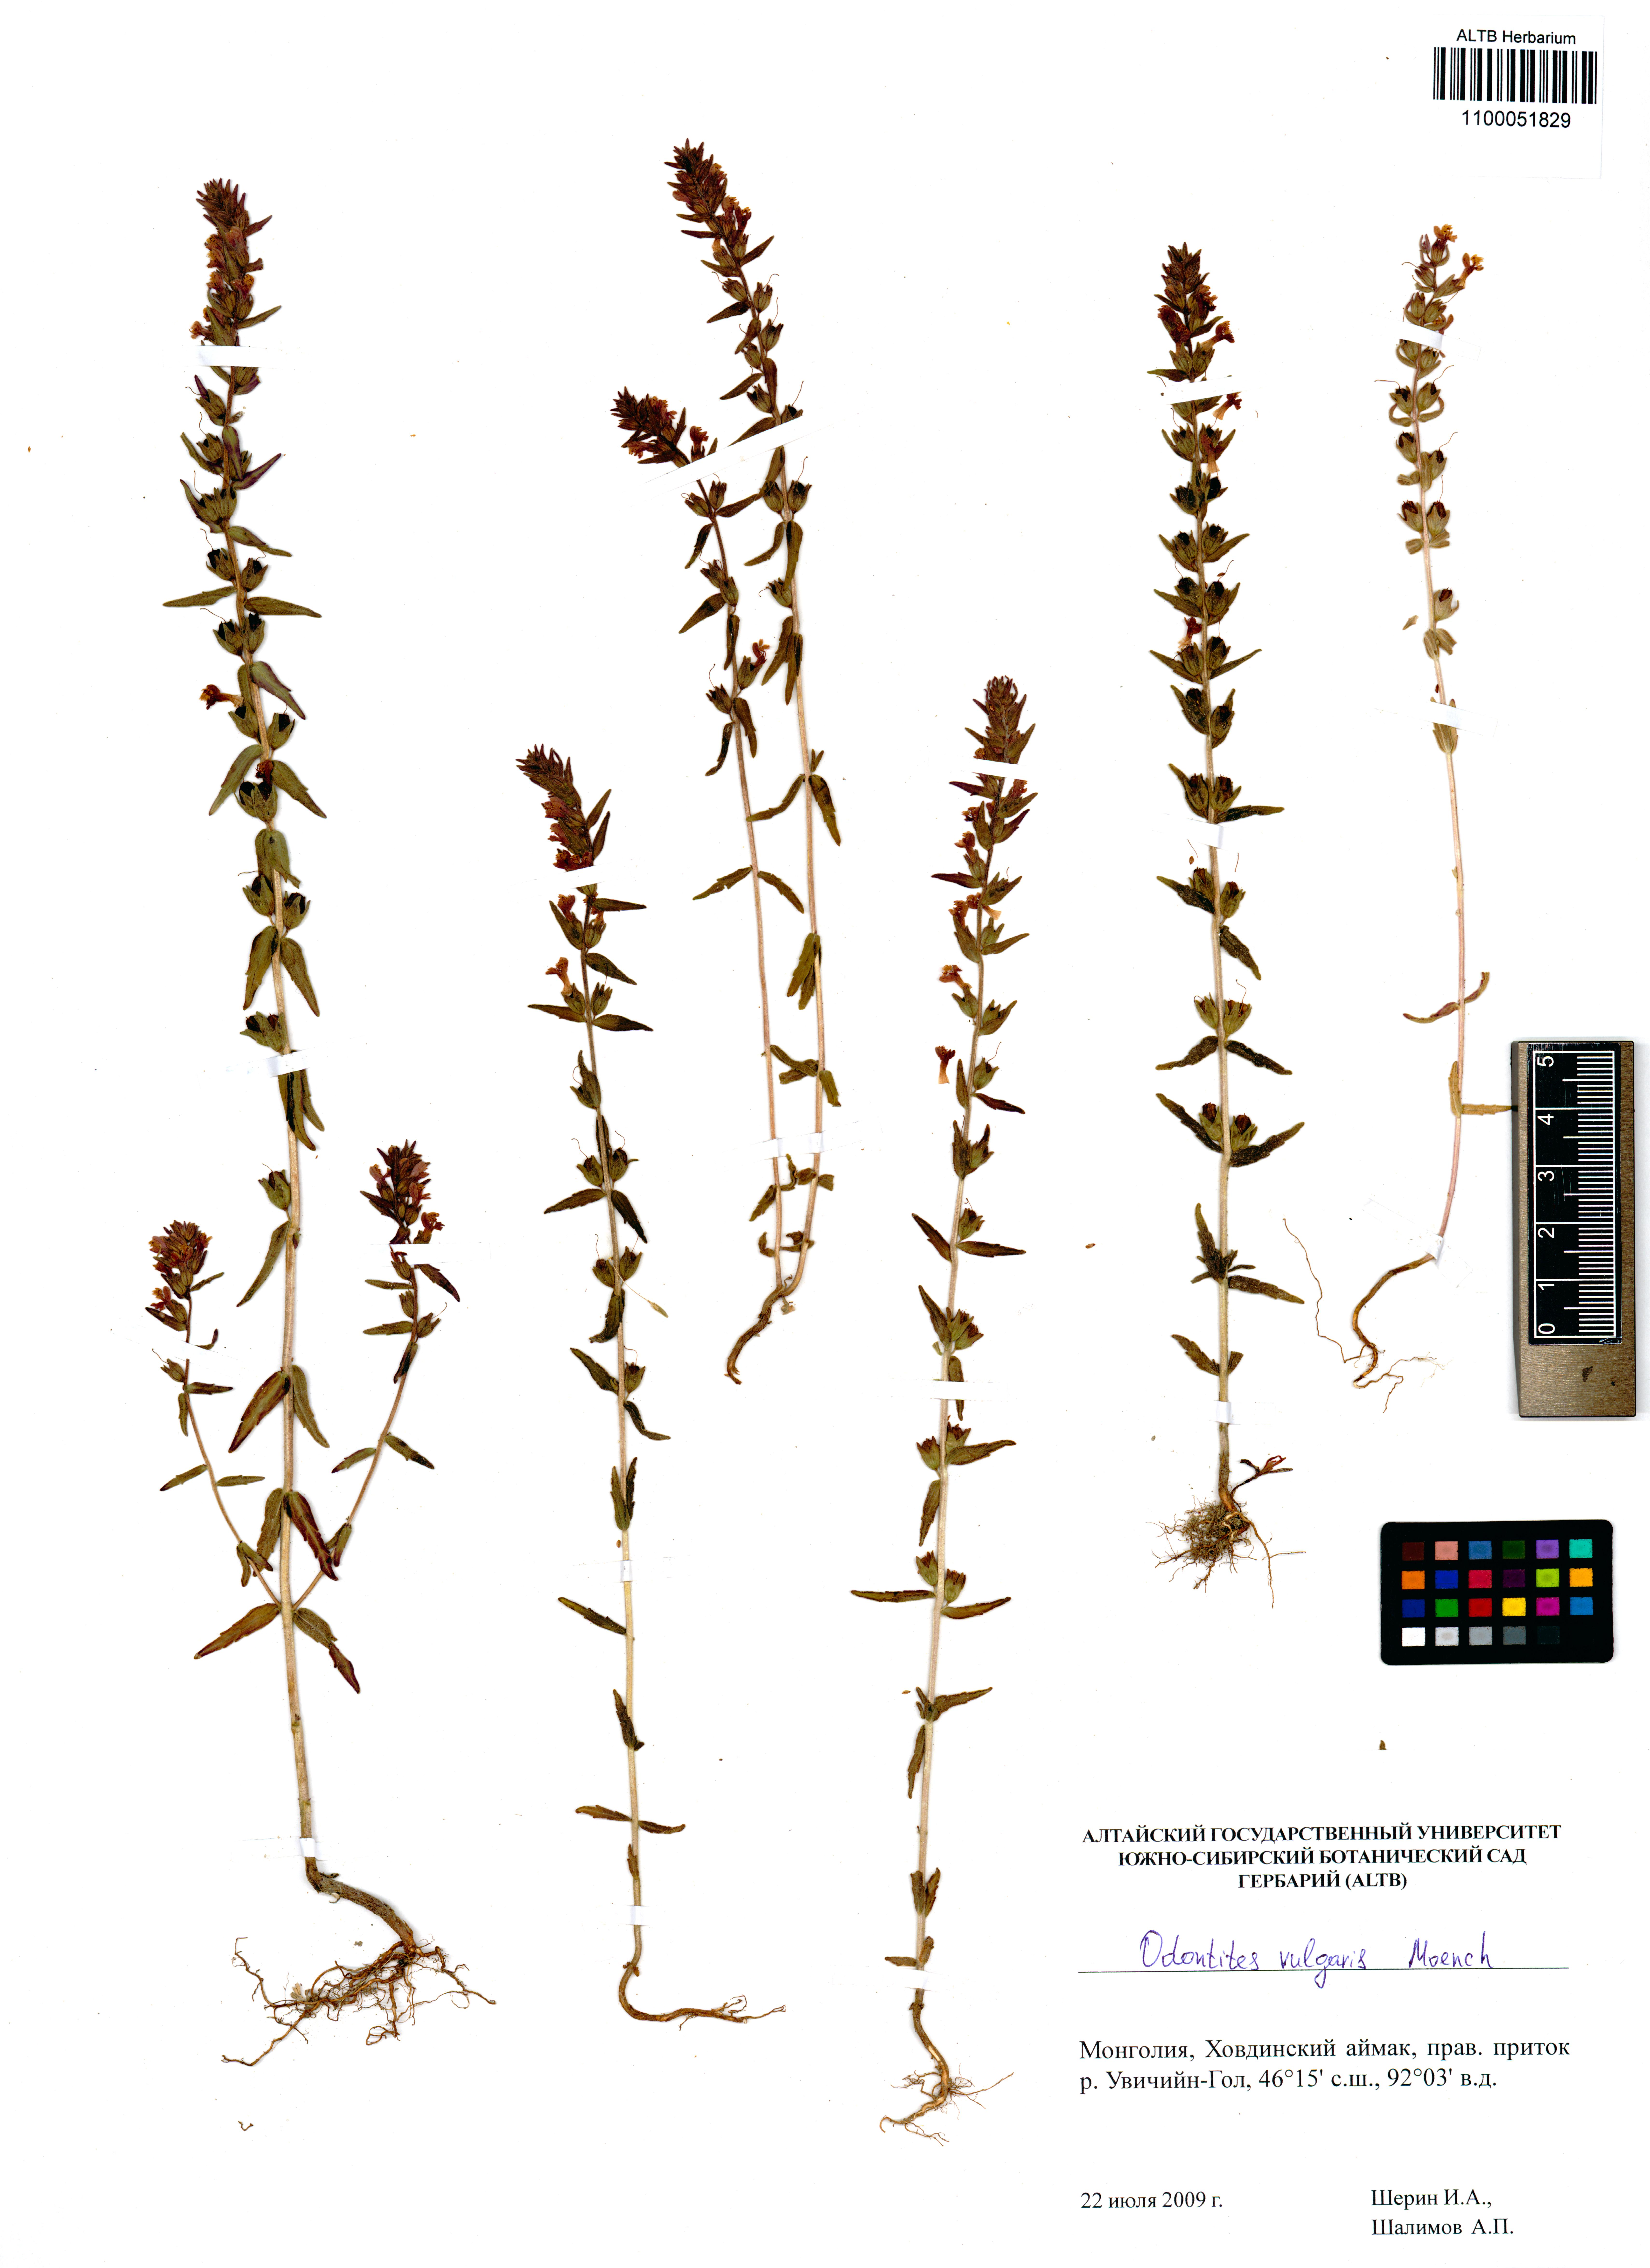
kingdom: Plantae
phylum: Tracheophyta
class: Magnoliopsida
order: Lamiales
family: Orobanchaceae
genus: Odontites
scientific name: Odontites vulgaris
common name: Broomrape
